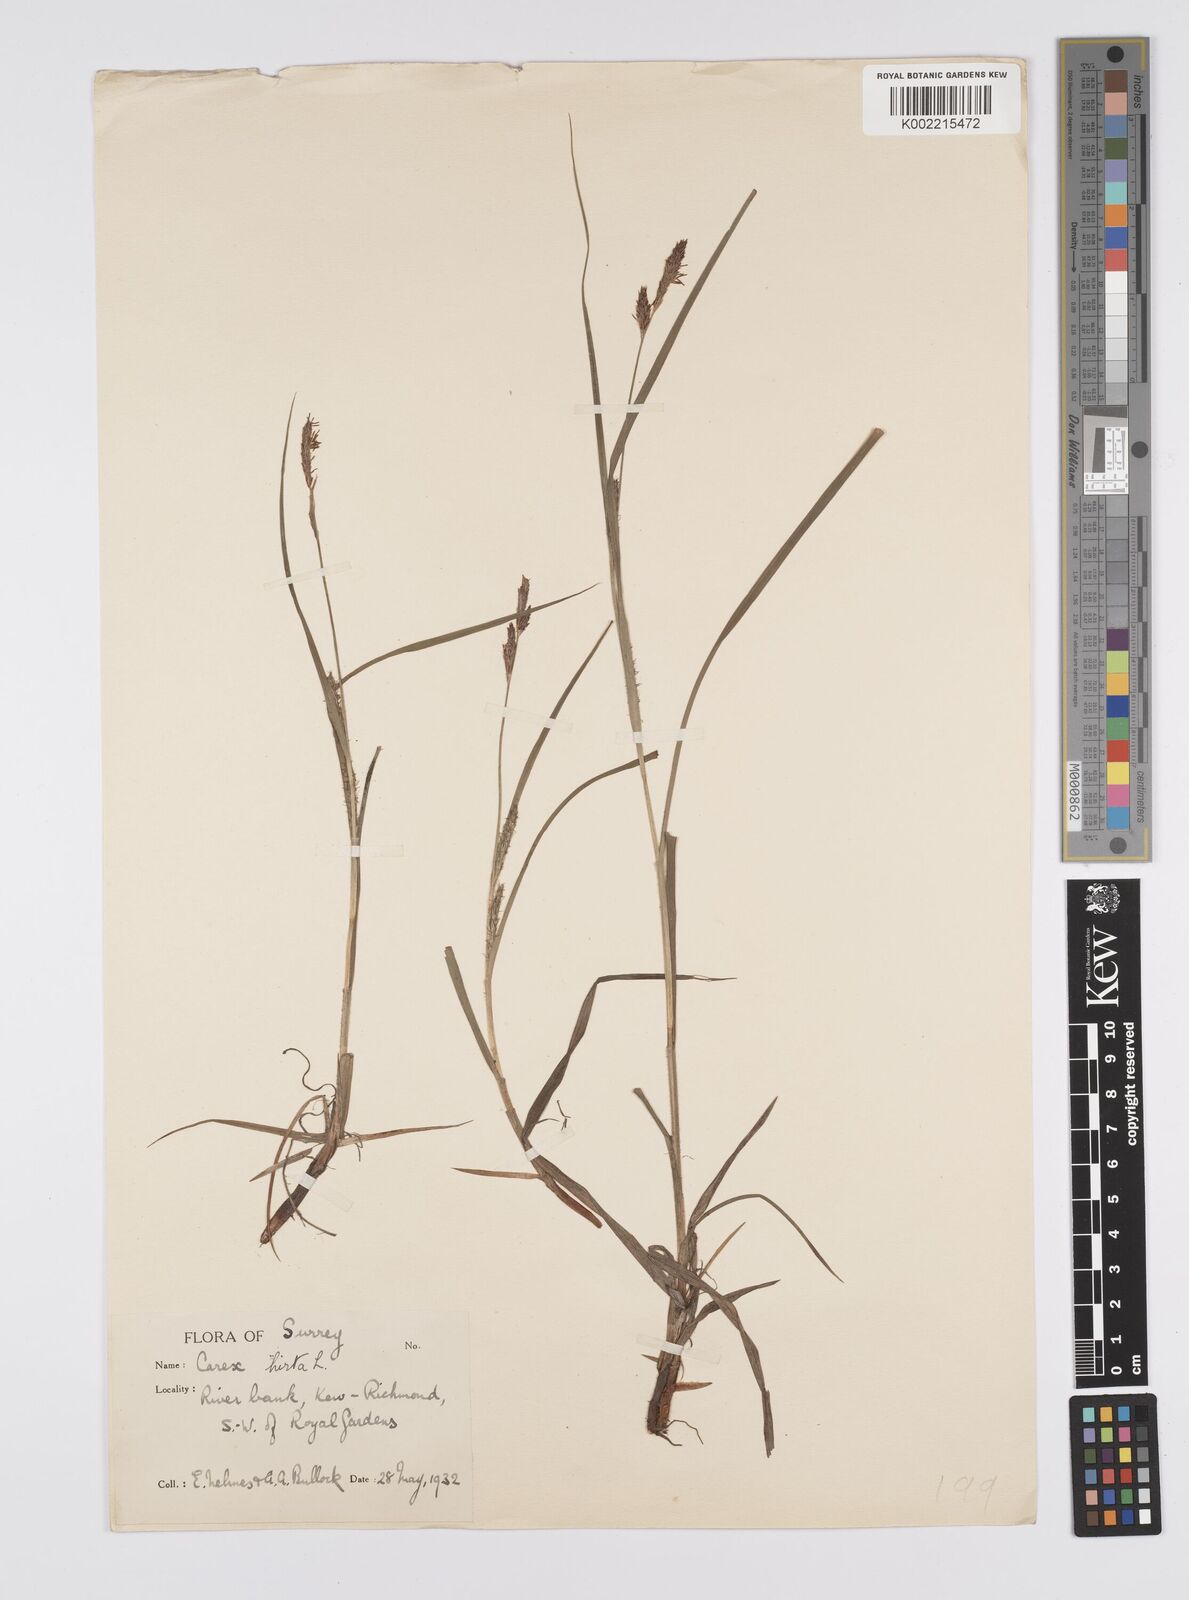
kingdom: Plantae
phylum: Tracheophyta
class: Liliopsida
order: Poales
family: Cyperaceae
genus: Carex
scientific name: Carex hirta
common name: Hairy sedge
